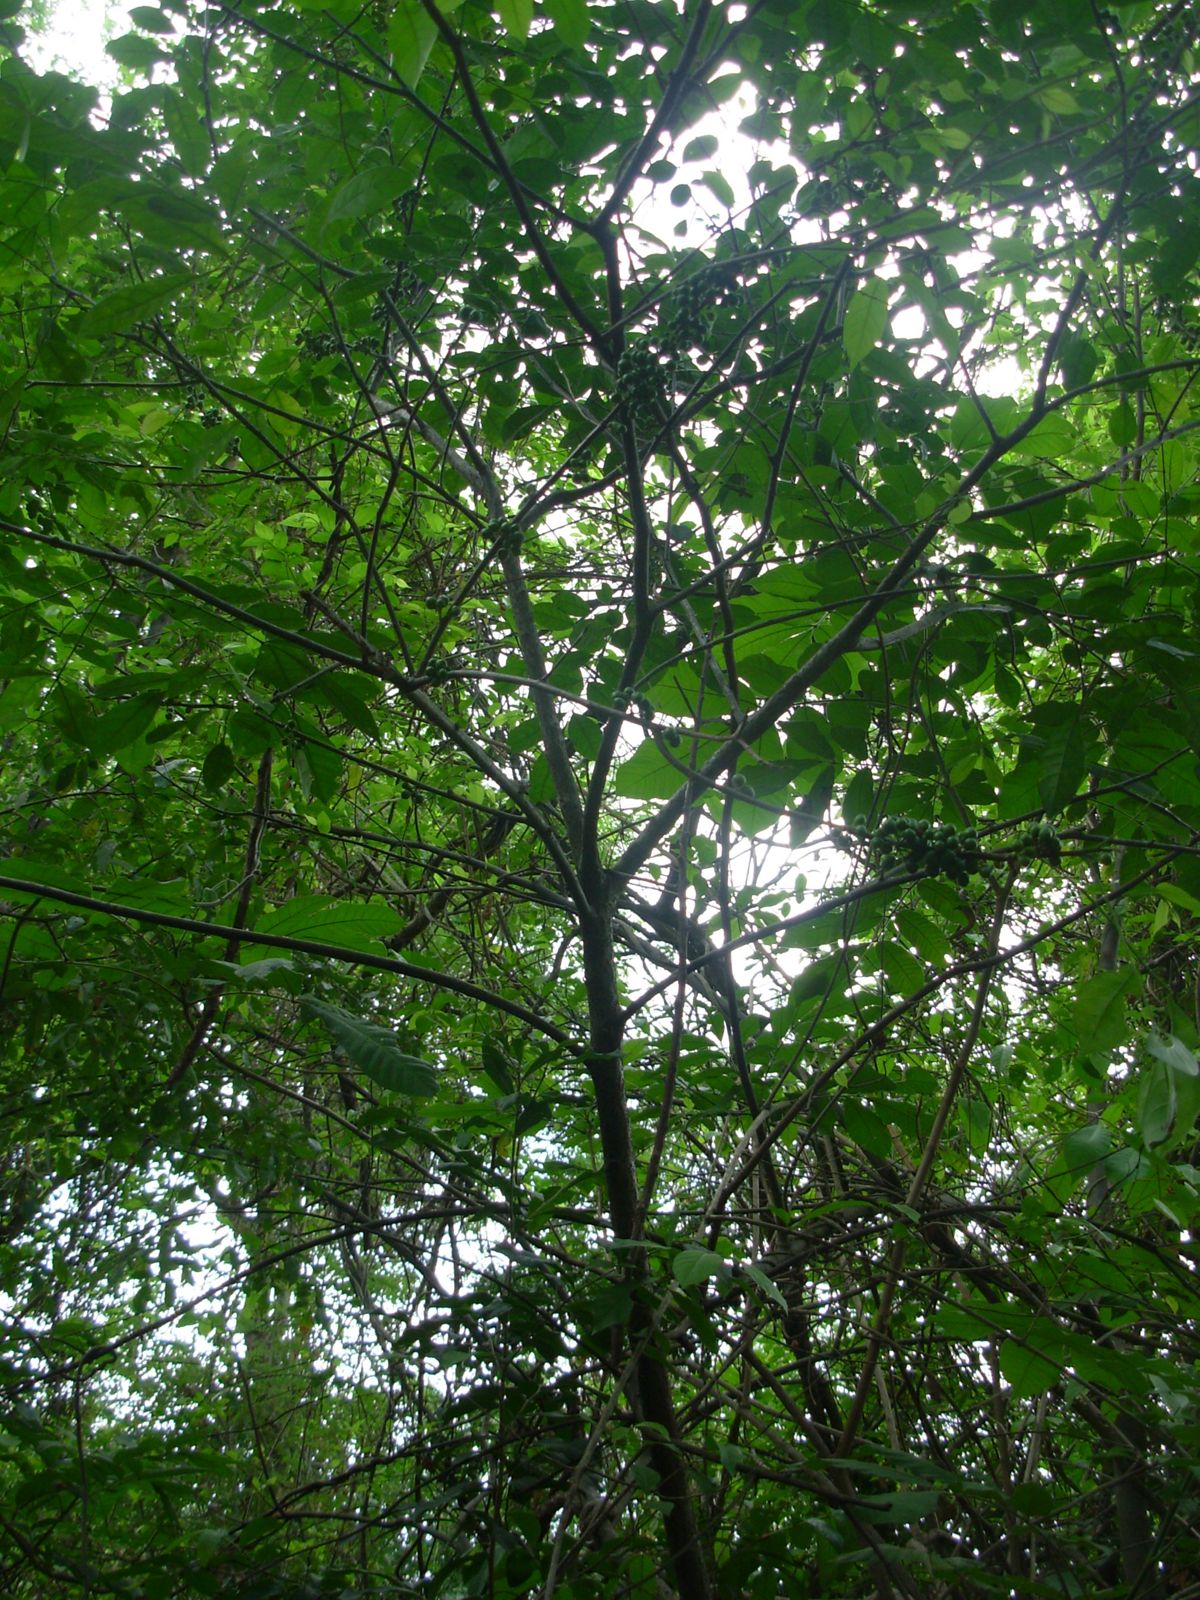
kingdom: Plantae
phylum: Tracheophyta
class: Magnoliopsida
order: Sapindales
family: Meliaceae
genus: Trichilia
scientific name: Trichilia havanensis
